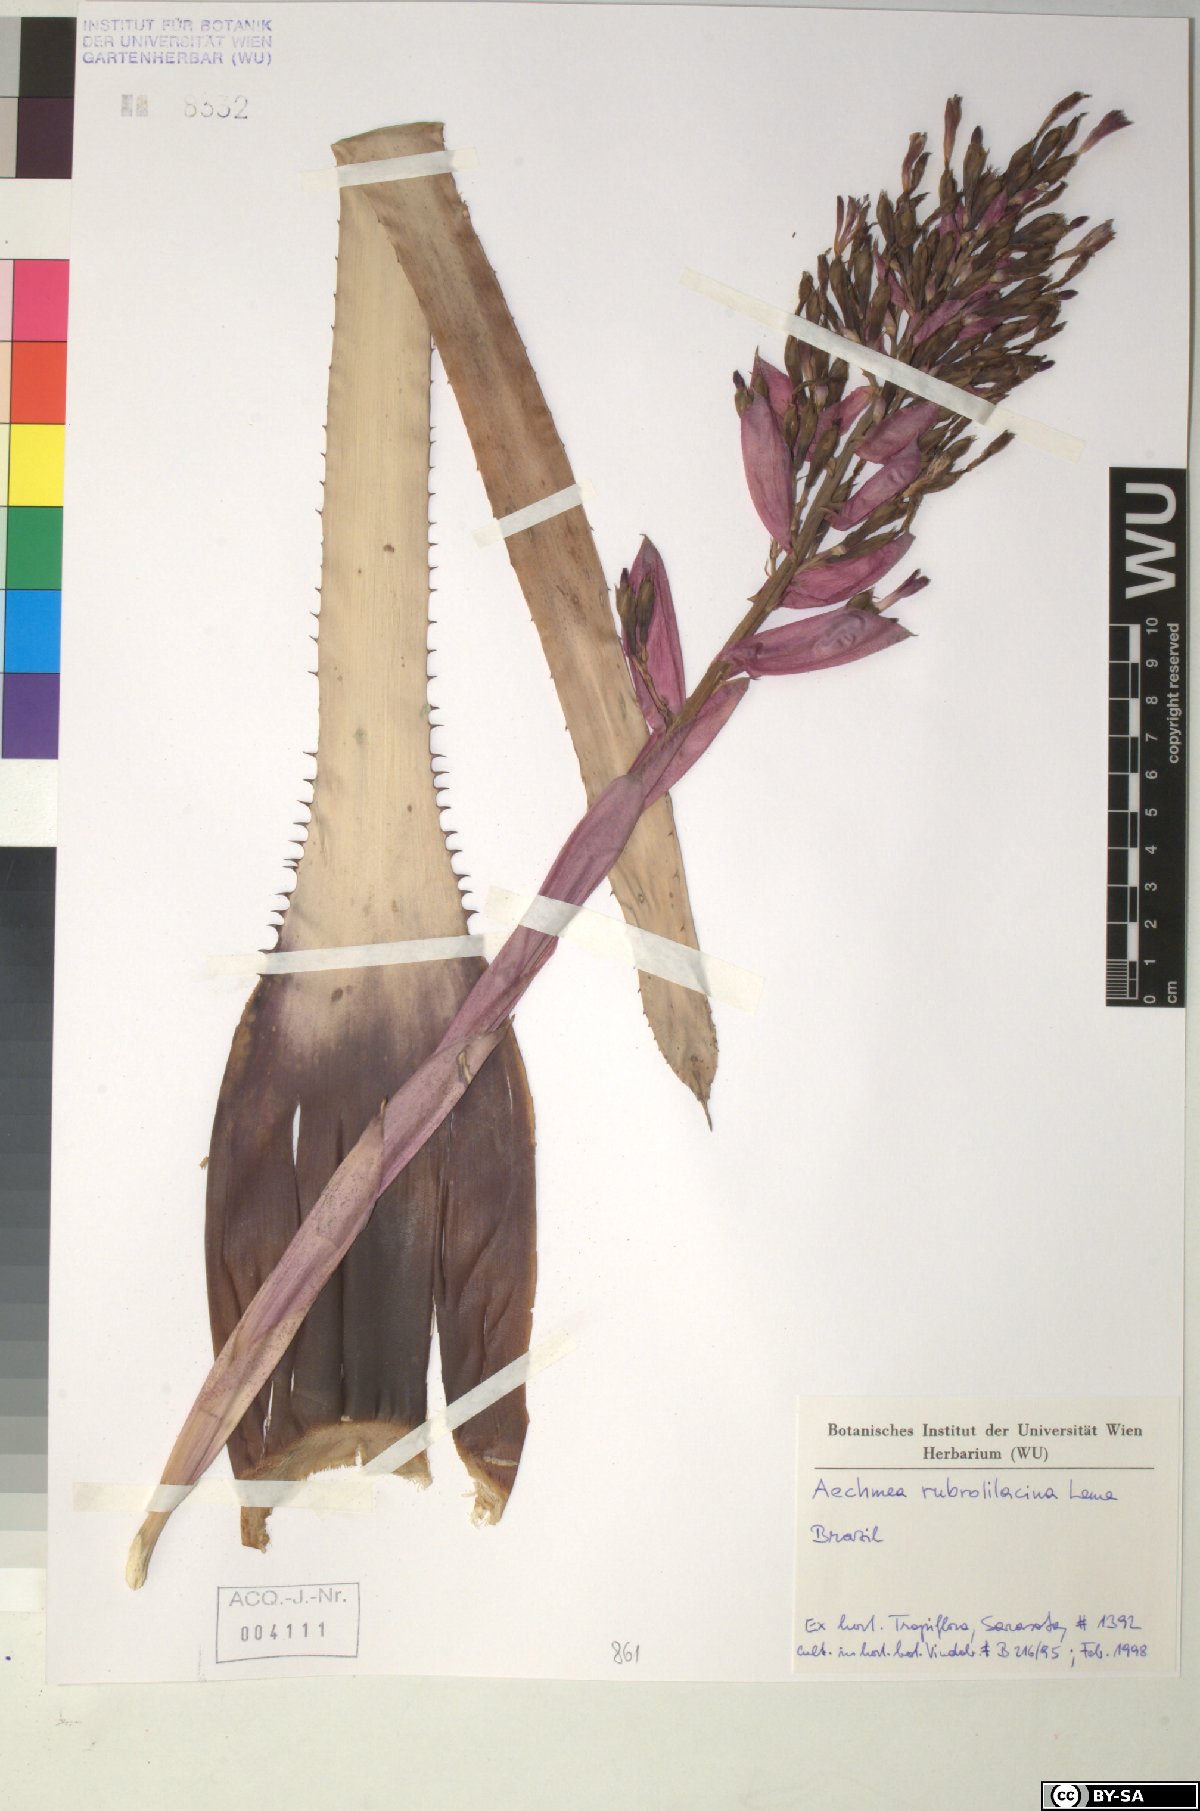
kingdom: Plantae
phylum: Tracheophyta
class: Liliopsida
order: Poales
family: Bromeliaceae
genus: Aechmea
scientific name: Aechmea rubrolilacina
